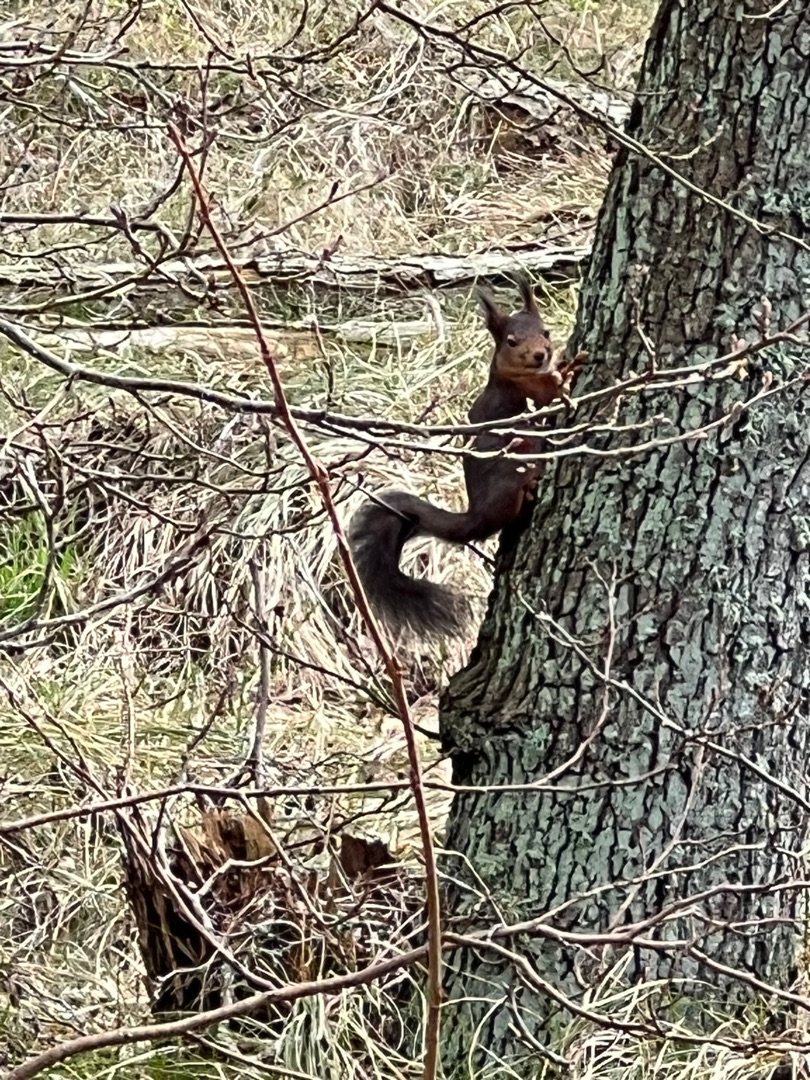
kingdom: Animalia
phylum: Chordata
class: Mammalia
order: Rodentia
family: Sciuridae
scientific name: Sciuridae
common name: Egern
